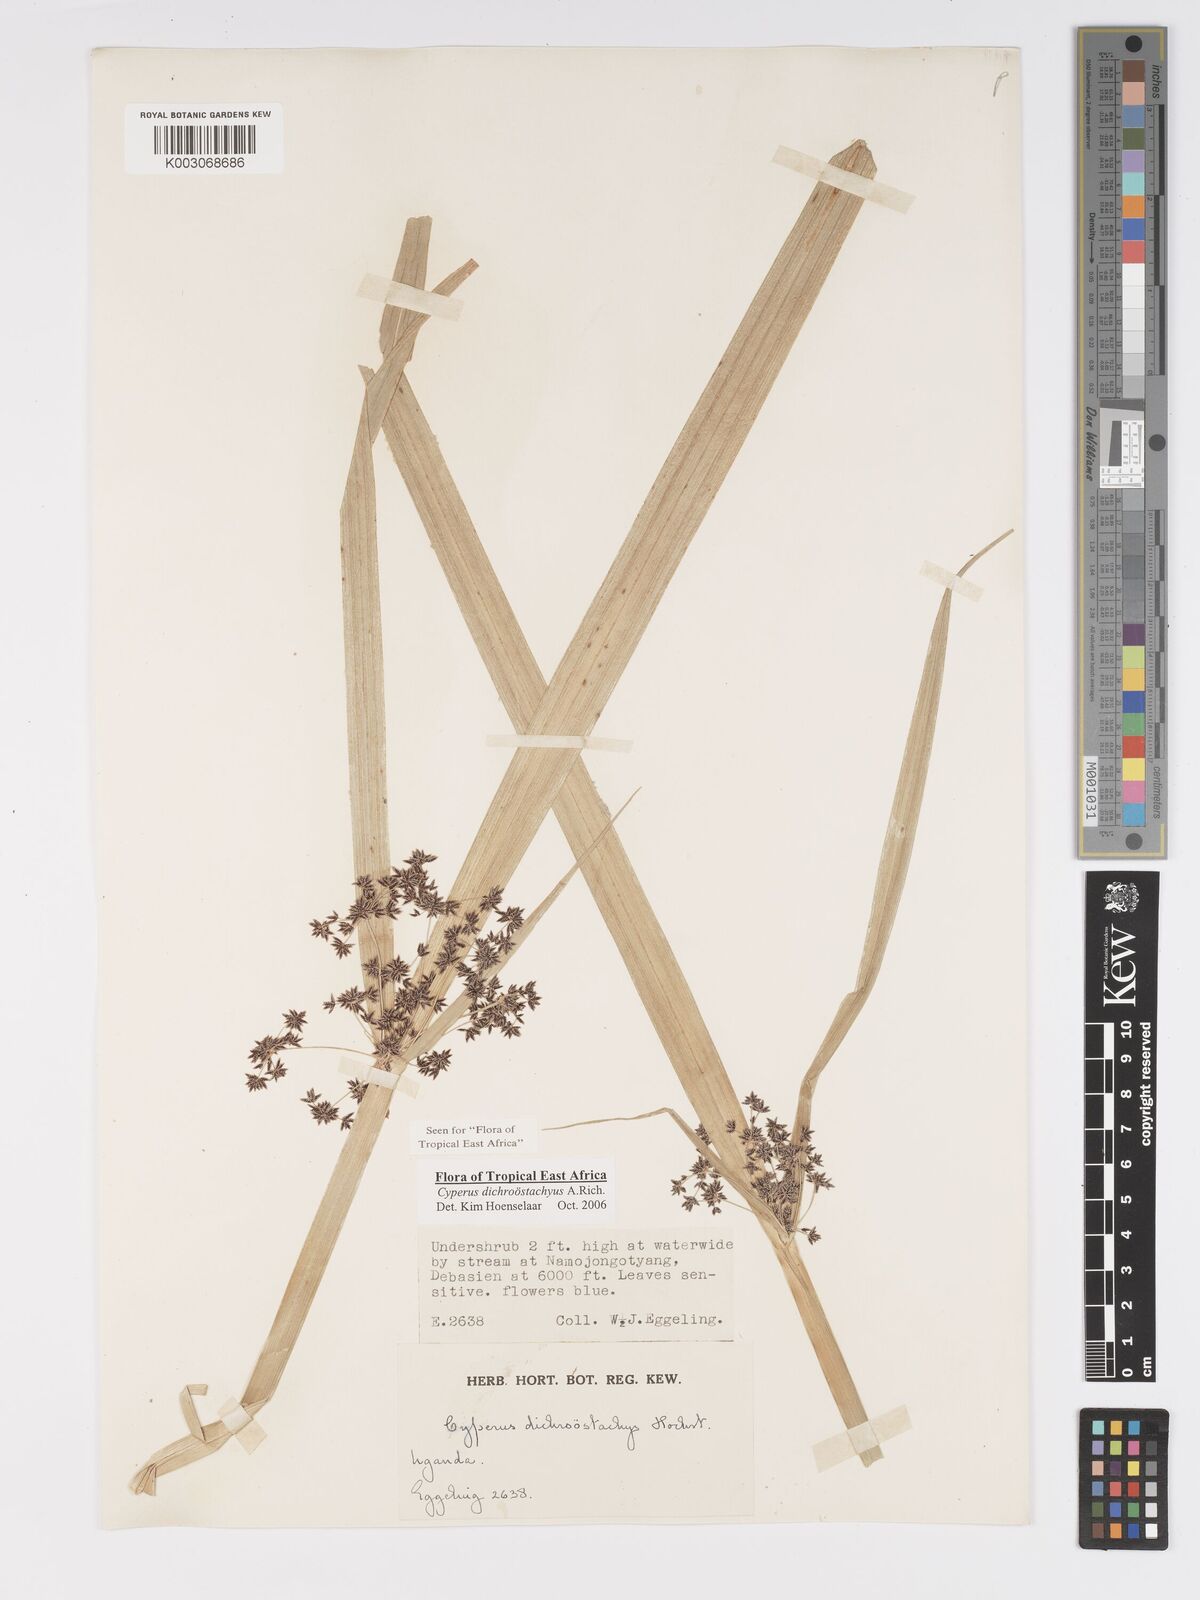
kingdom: Plantae
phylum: Tracheophyta
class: Liliopsida
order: Poales
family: Cyperaceae
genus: Cyperus
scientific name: Cyperus dichrostachyus
